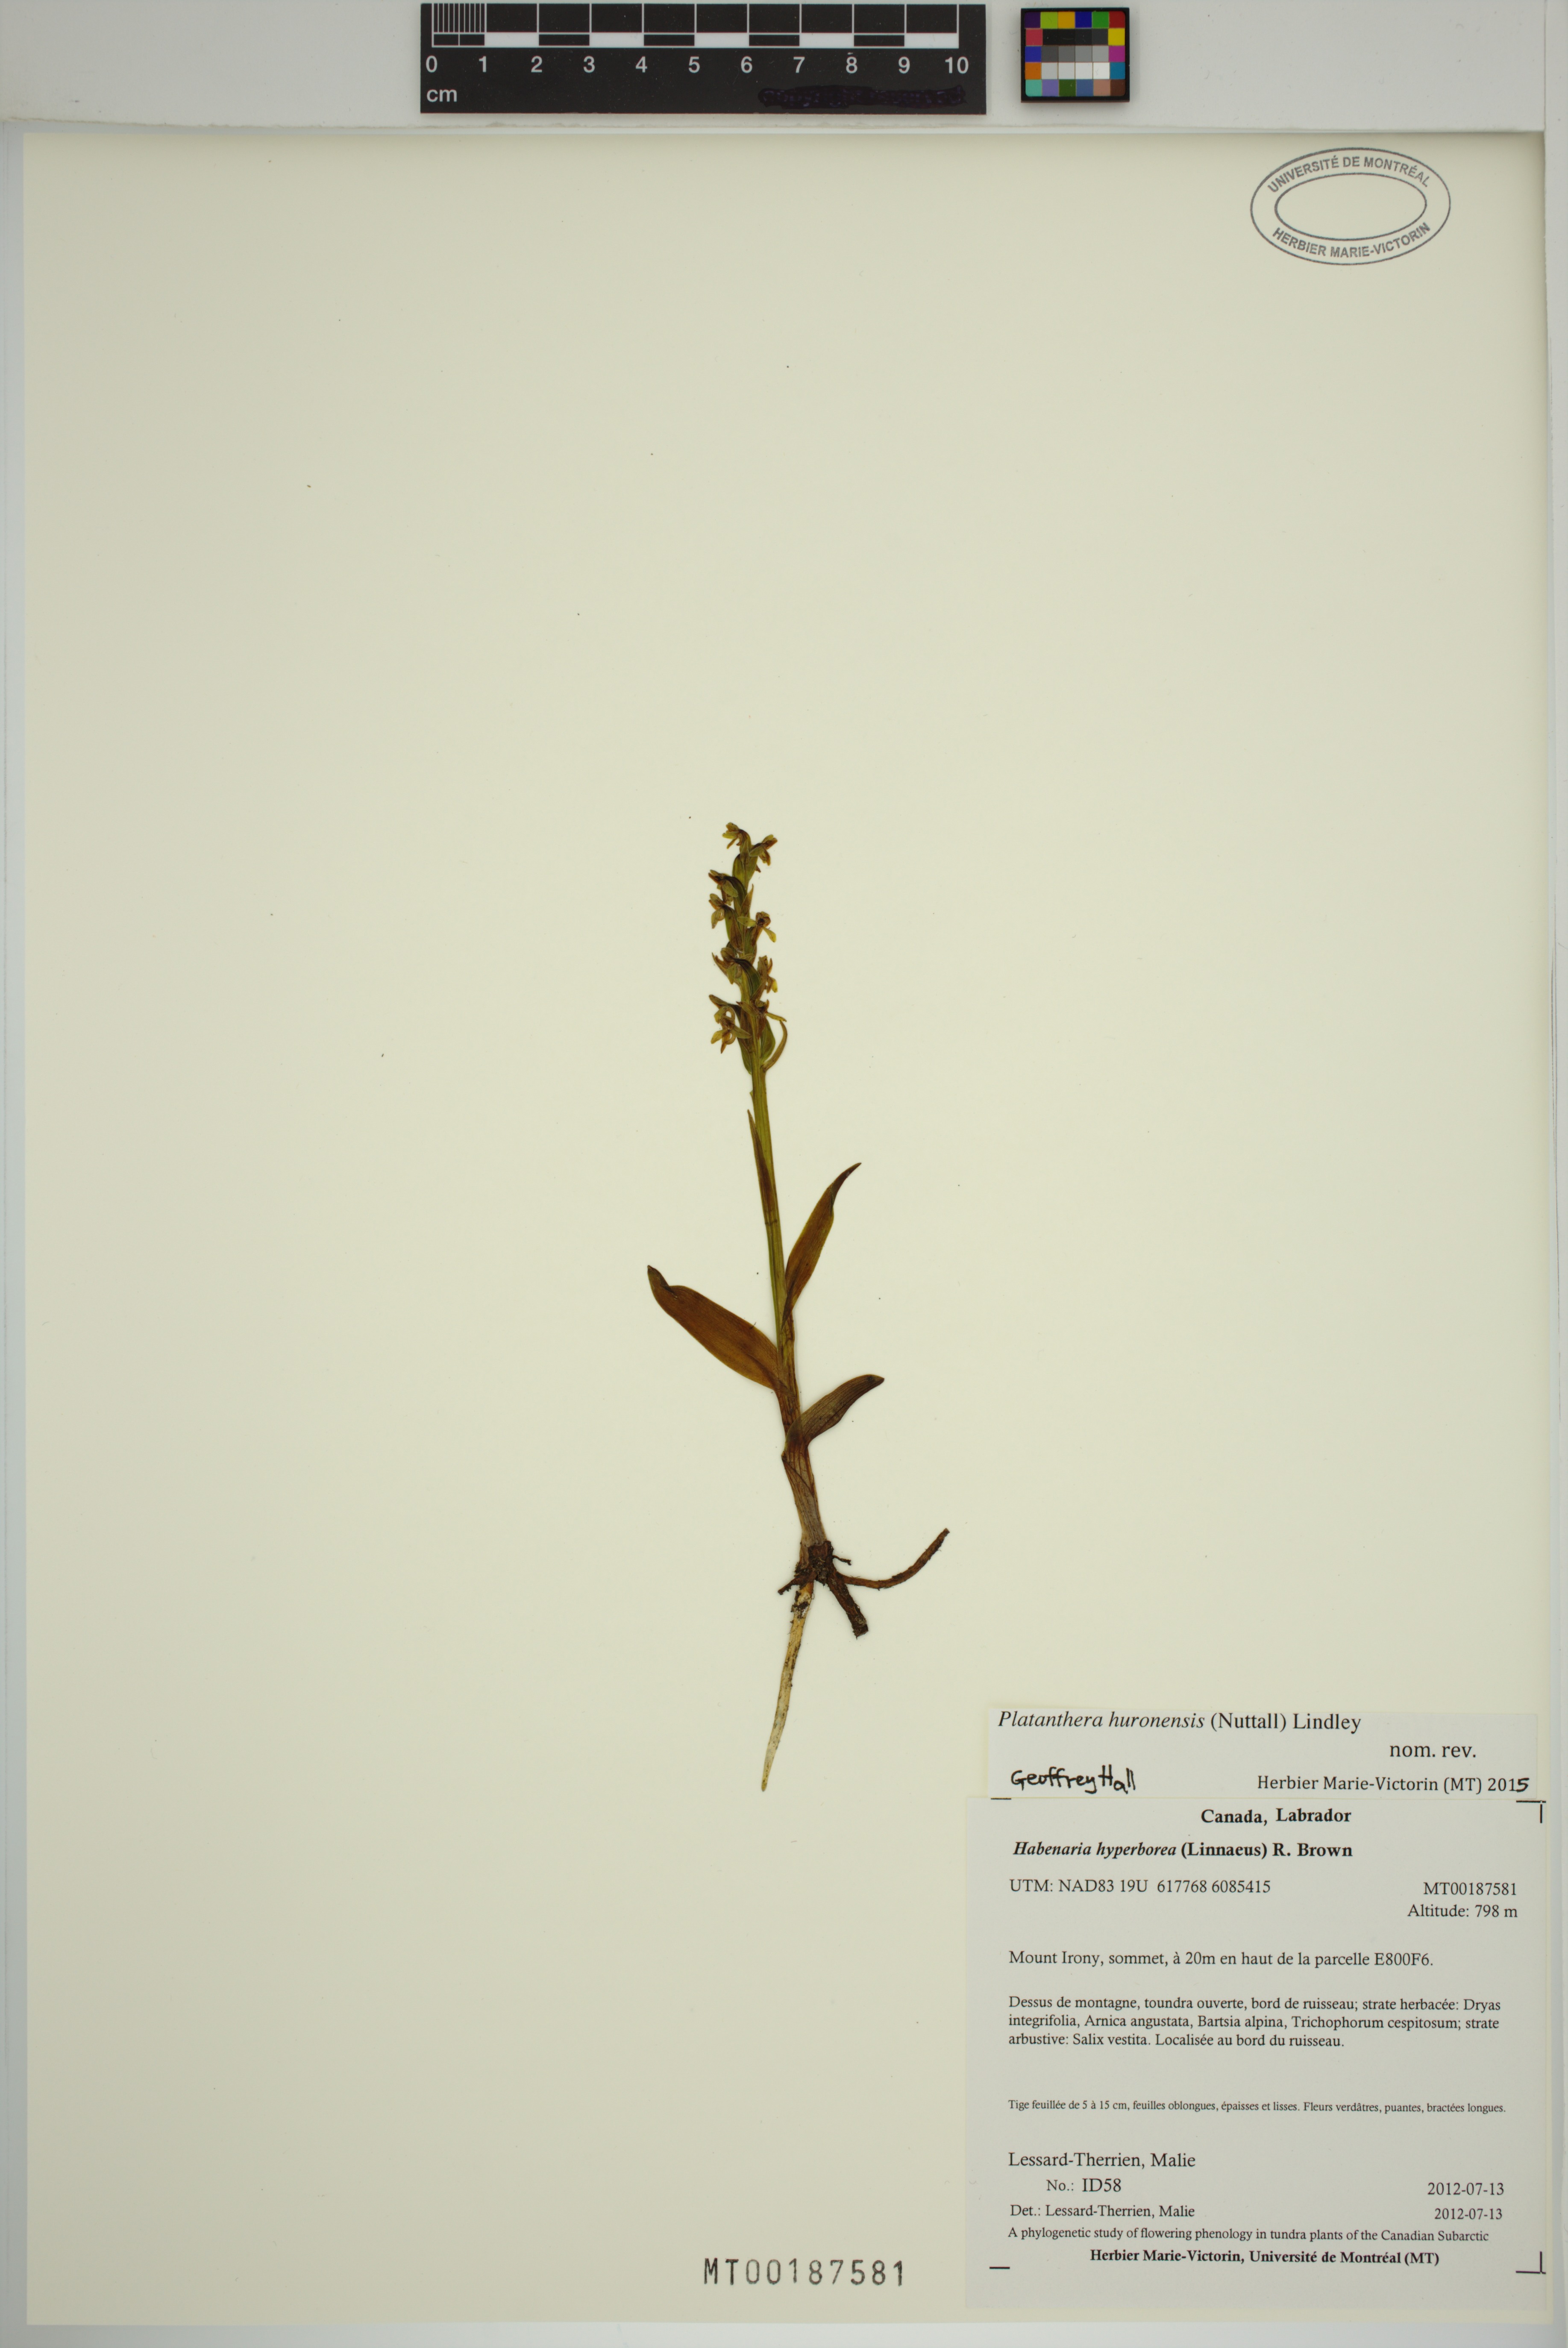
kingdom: Plantae
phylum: Tracheophyta
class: Liliopsida
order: Asparagales
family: Orchidaceae
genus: Platanthera
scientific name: Platanthera huronensis
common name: Fragrant green orchid
